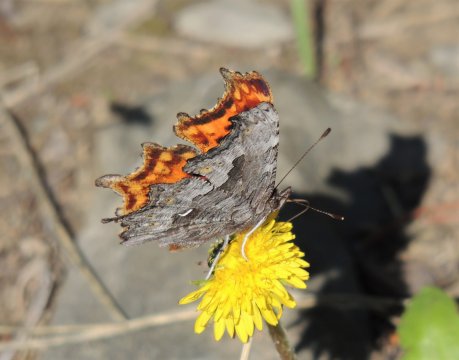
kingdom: Animalia
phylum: Arthropoda
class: Insecta
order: Lepidoptera
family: Nymphalidae
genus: Polygonia
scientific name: Polygonia gracilis
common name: Hoary Comma
